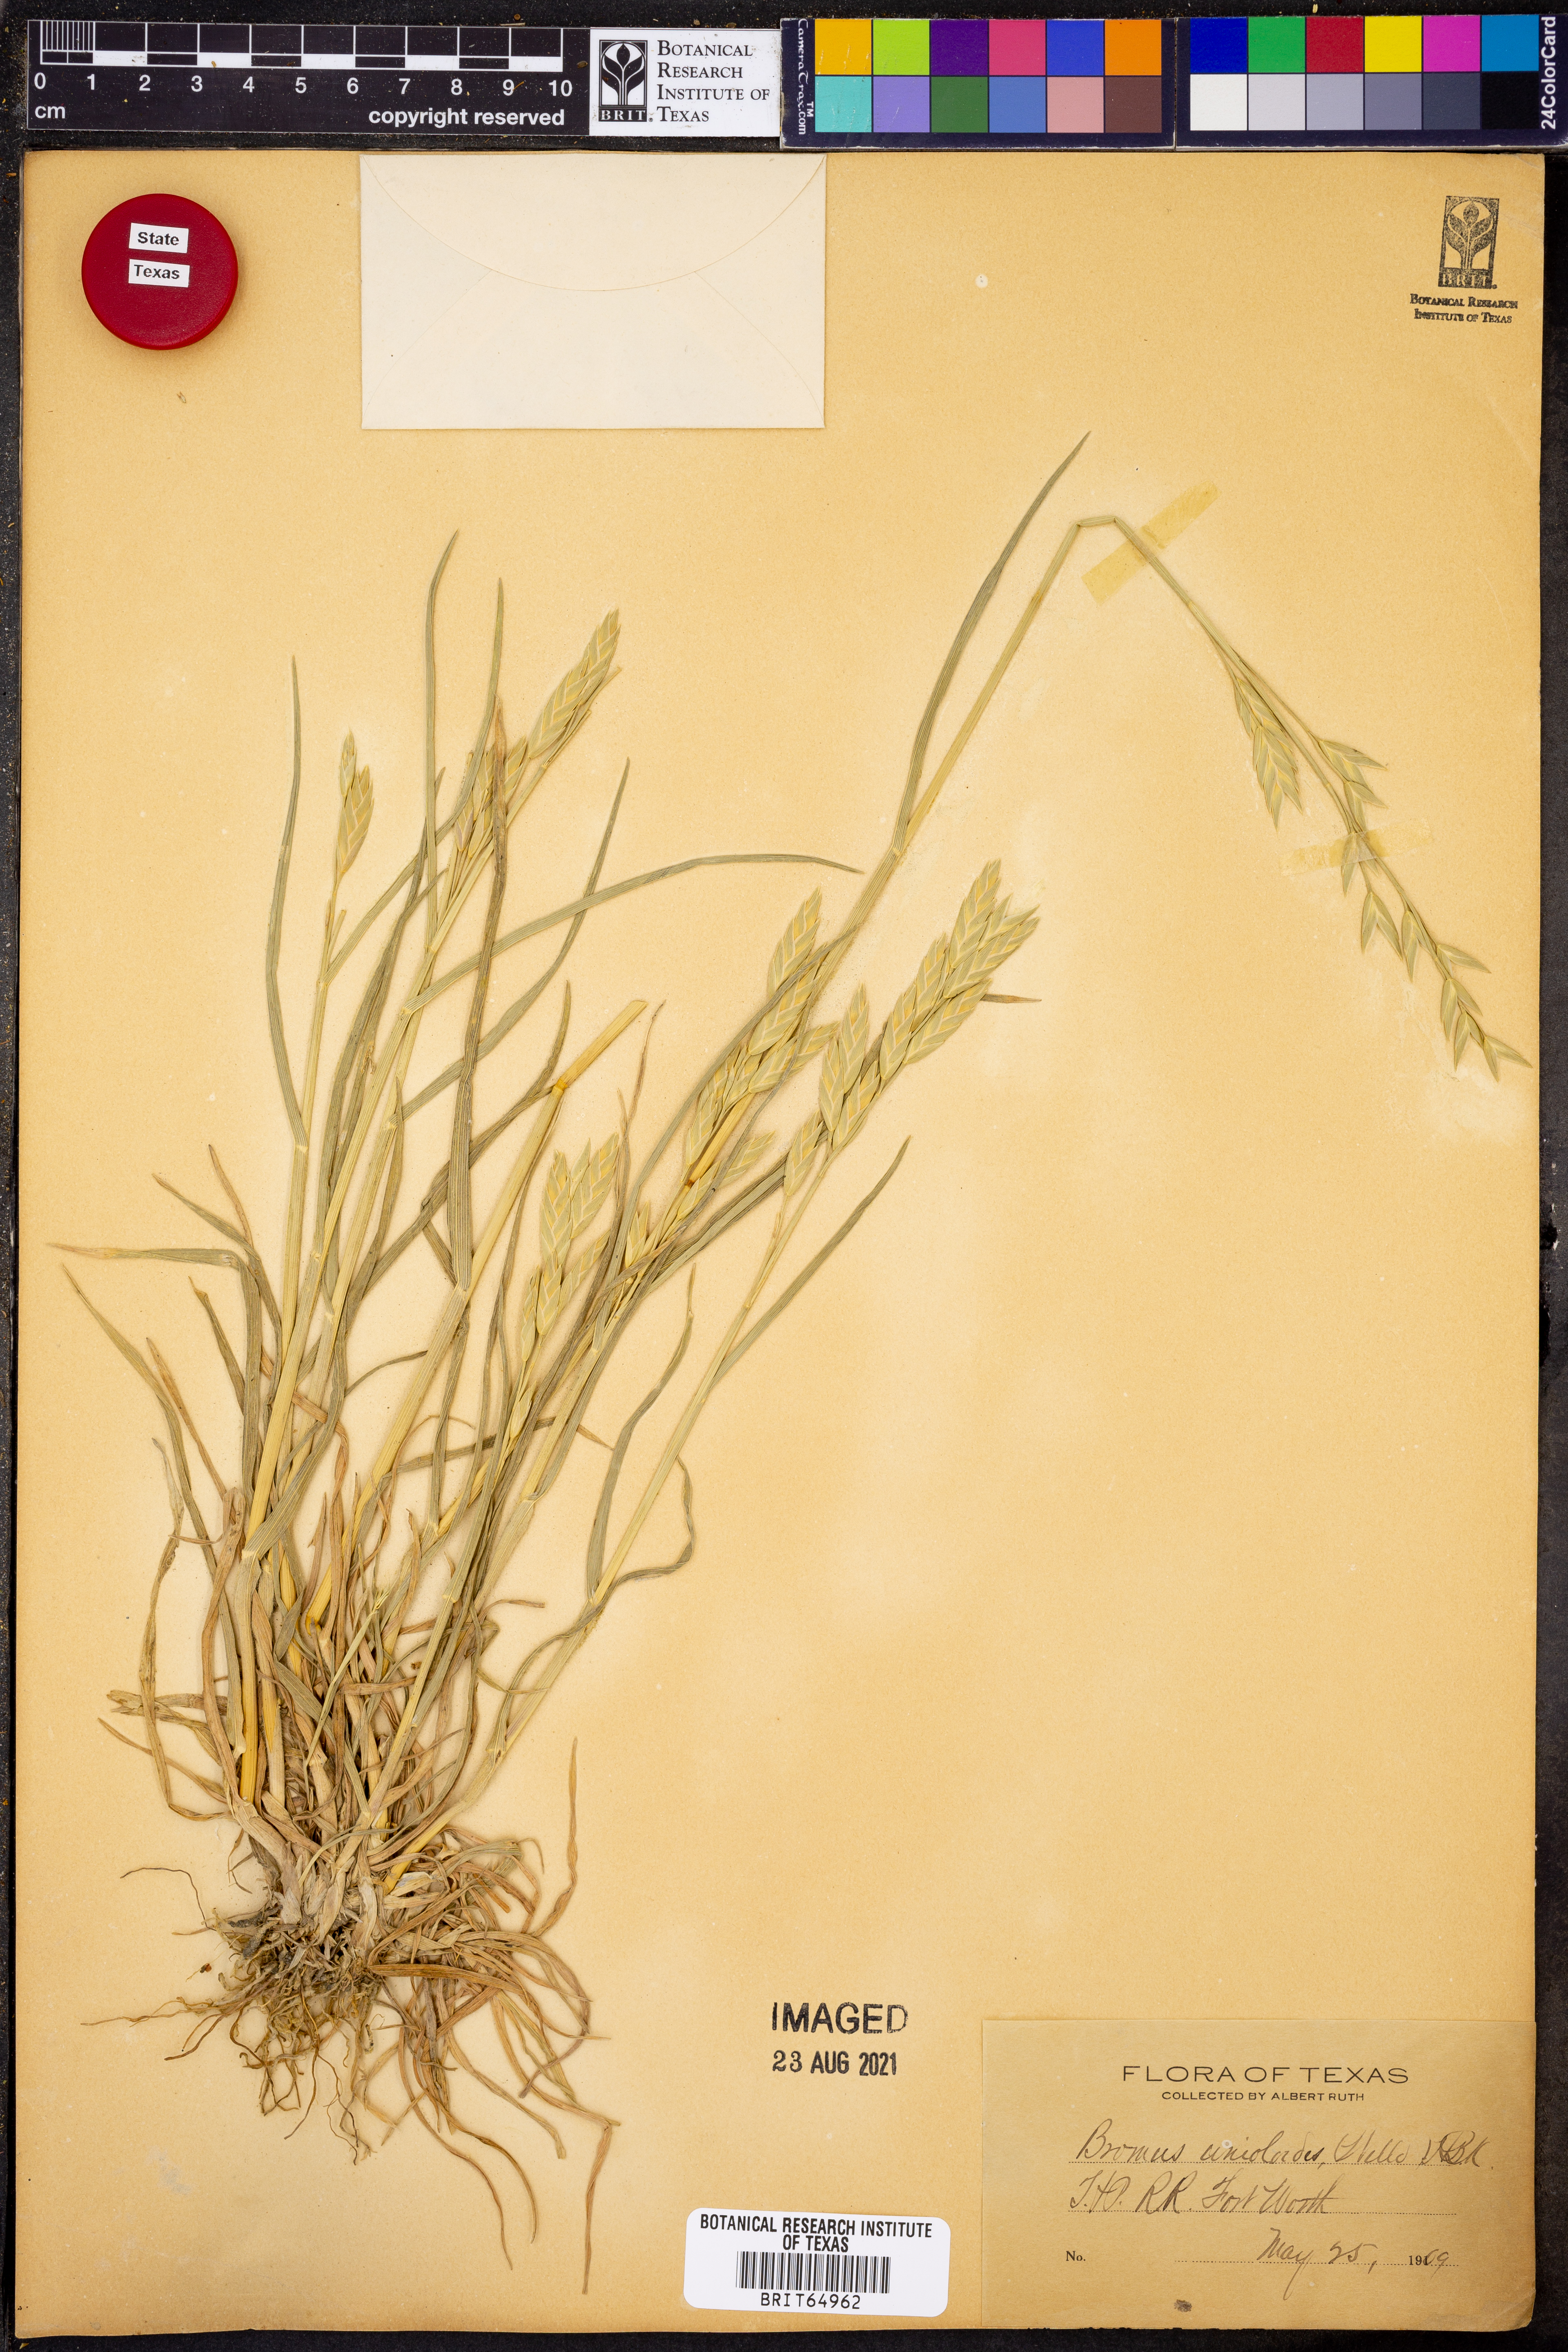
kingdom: Plantae
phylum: Tracheophyta
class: Liliopsida
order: Poales
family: Poaceae
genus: Bromus
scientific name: Bromus catharticus
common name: Rescuegrass
